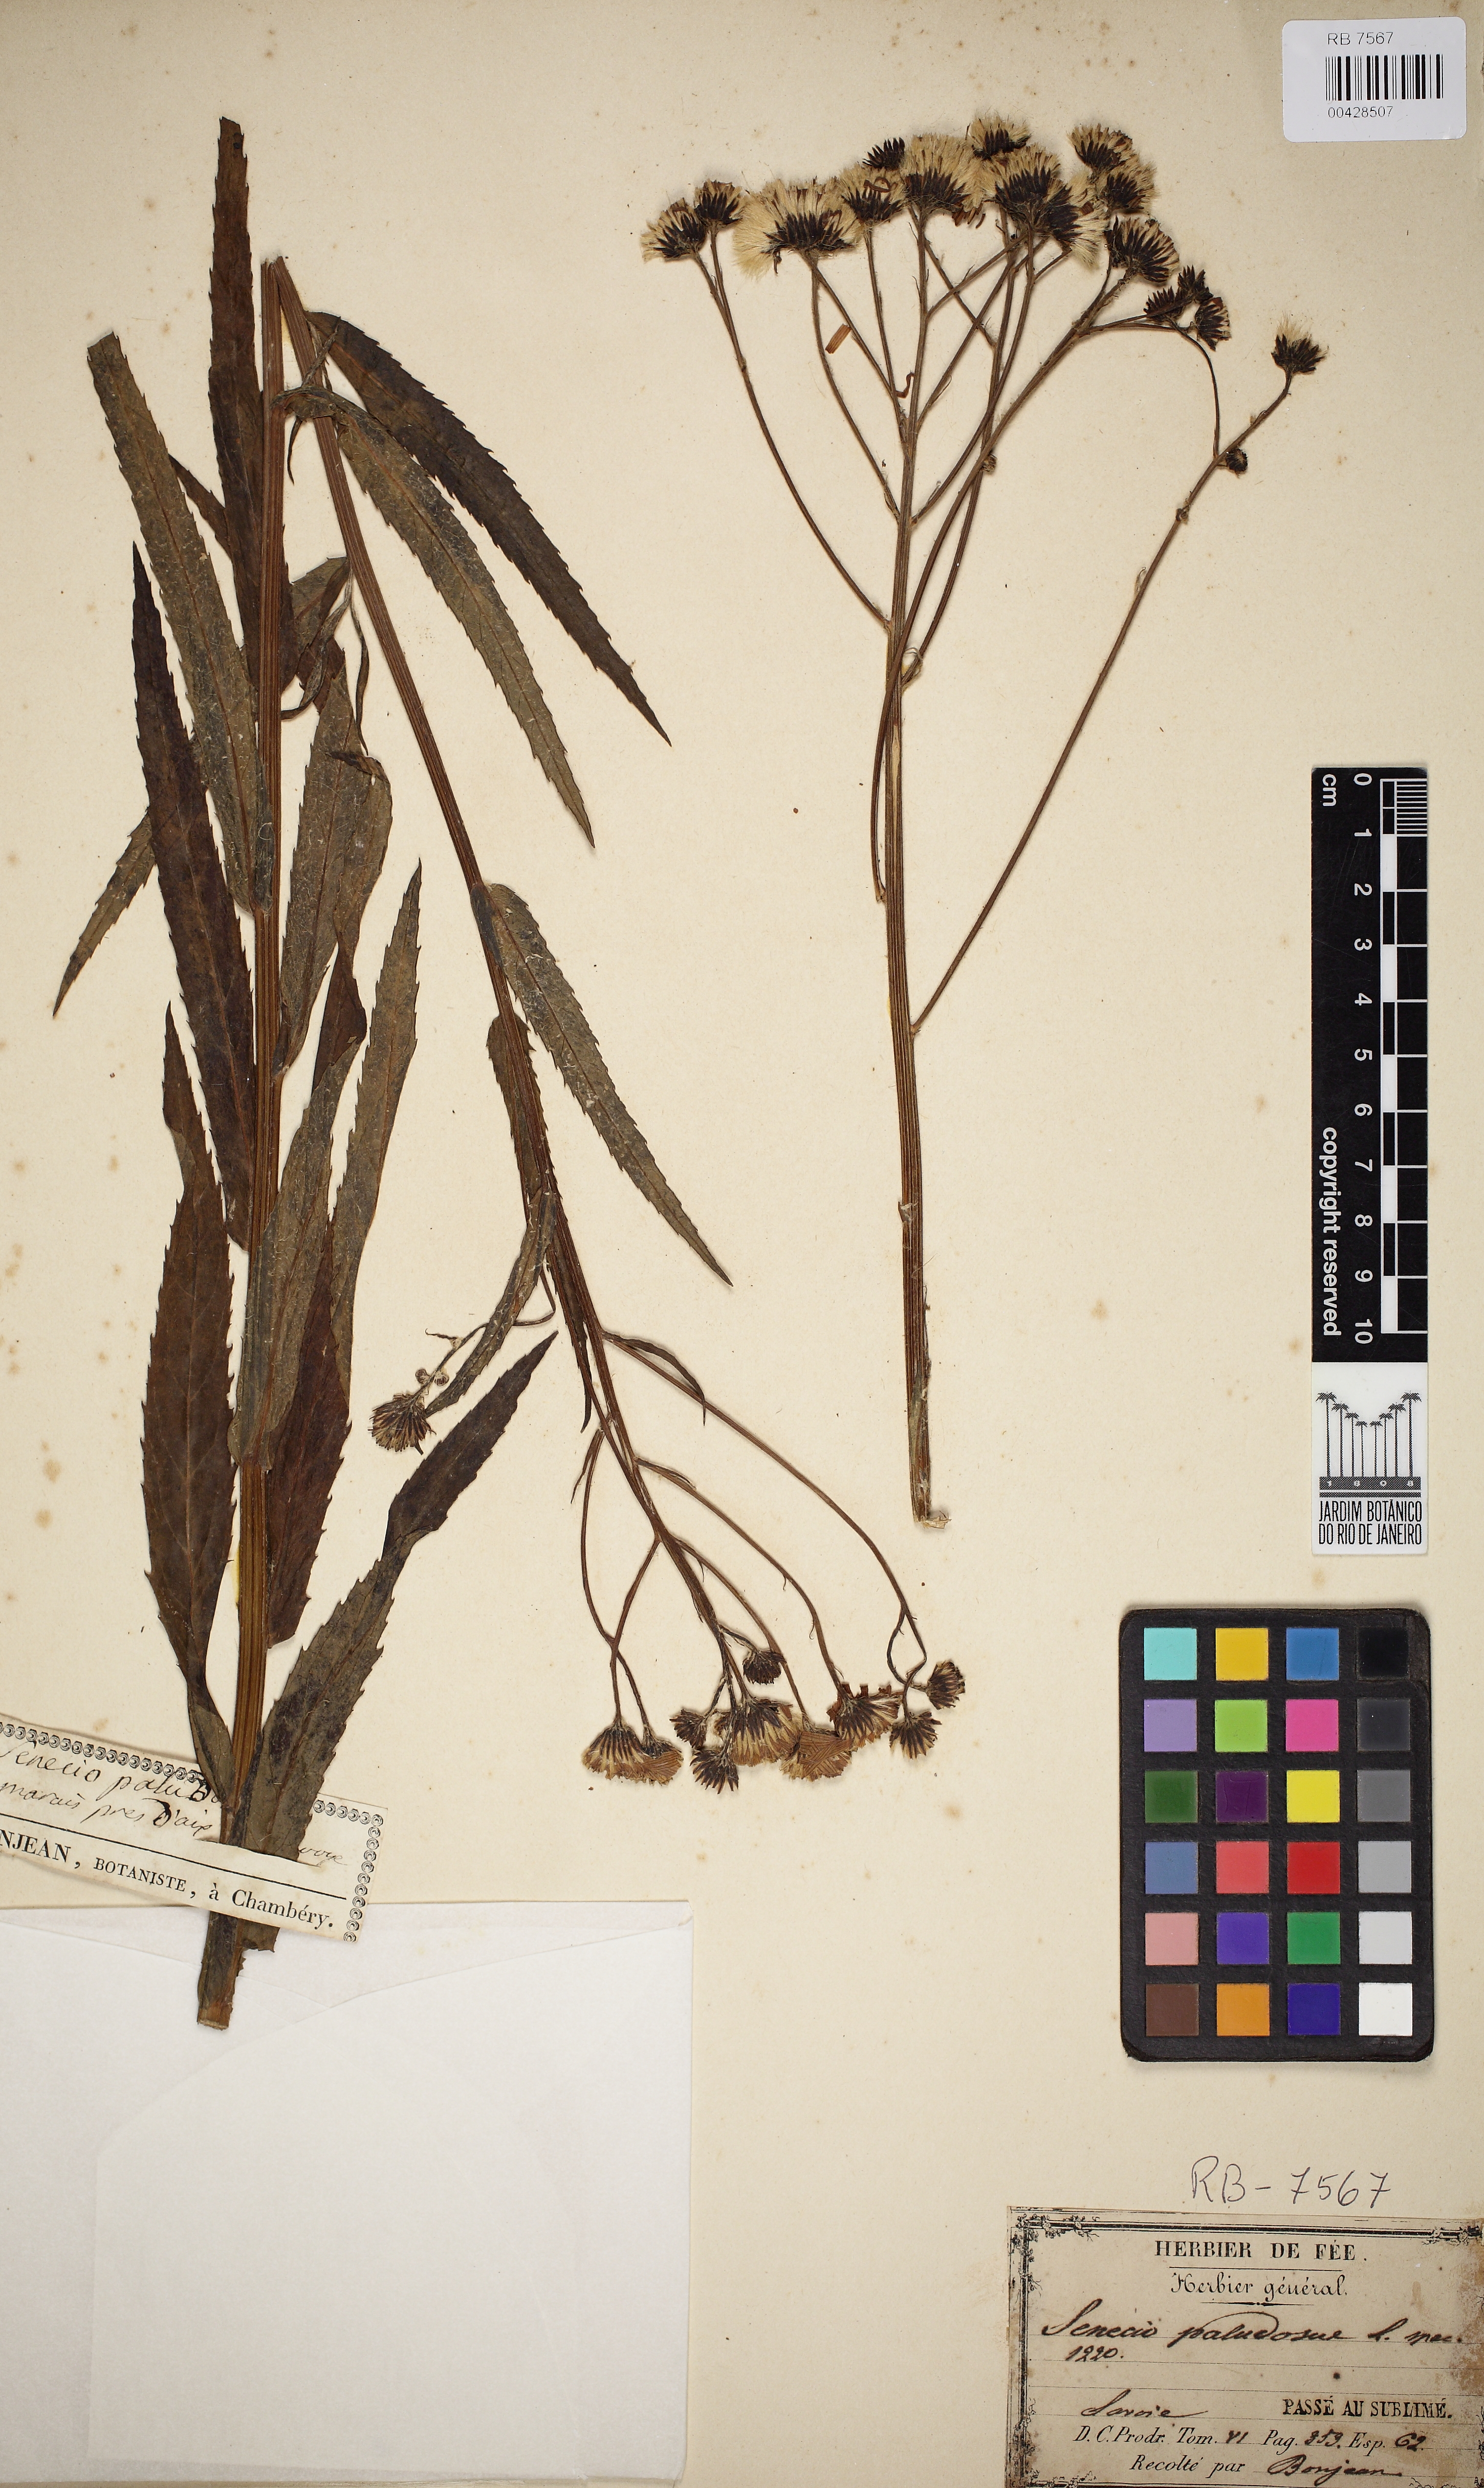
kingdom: Plantae
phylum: Tracheophyta
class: Magnoliopsida
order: Asterales
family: Asteraceae
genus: Jacobaea
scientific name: Jacobaea paludosa
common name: Fen ragwort
